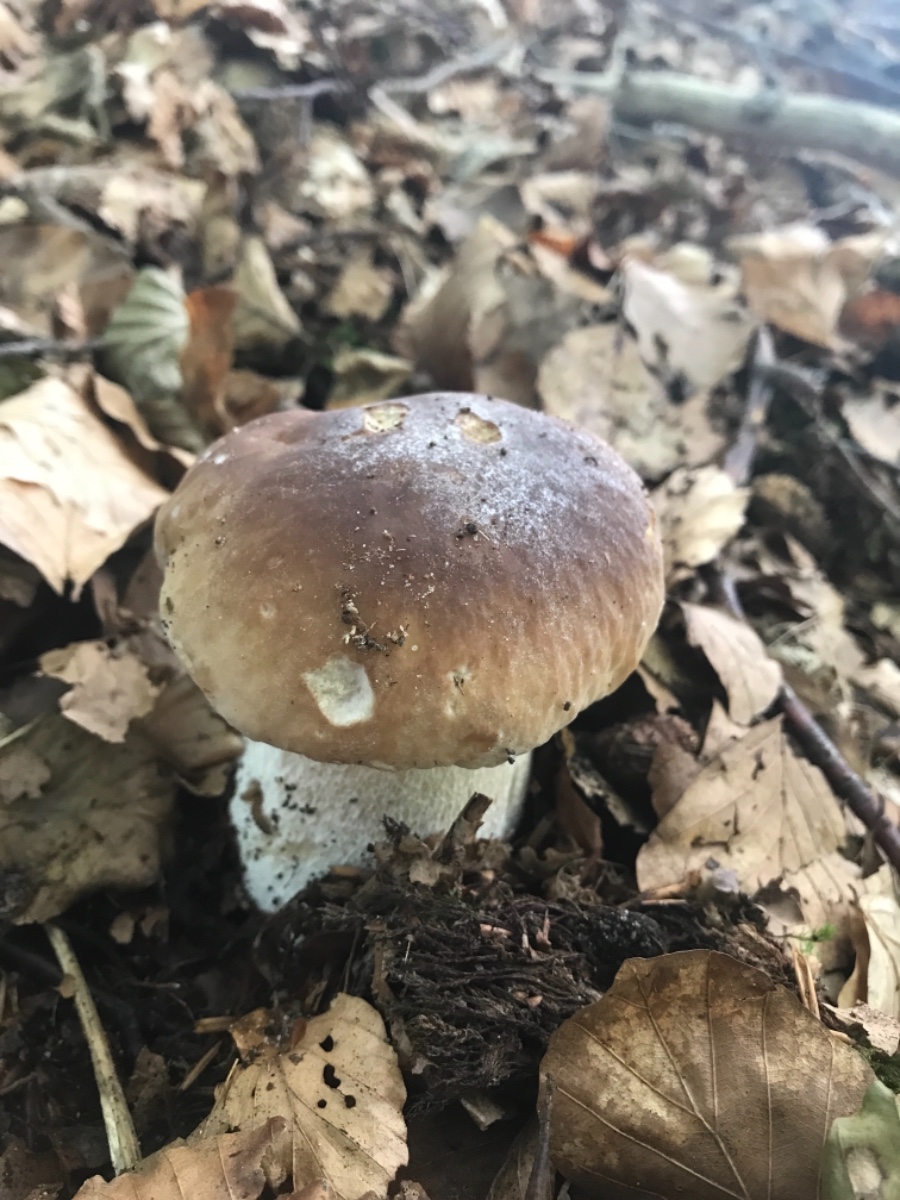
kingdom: Fungi
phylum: Basidiomycota
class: Agaricomycetes
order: Boletales
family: Boletaceae
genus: Boletus
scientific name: Boletus edulis
